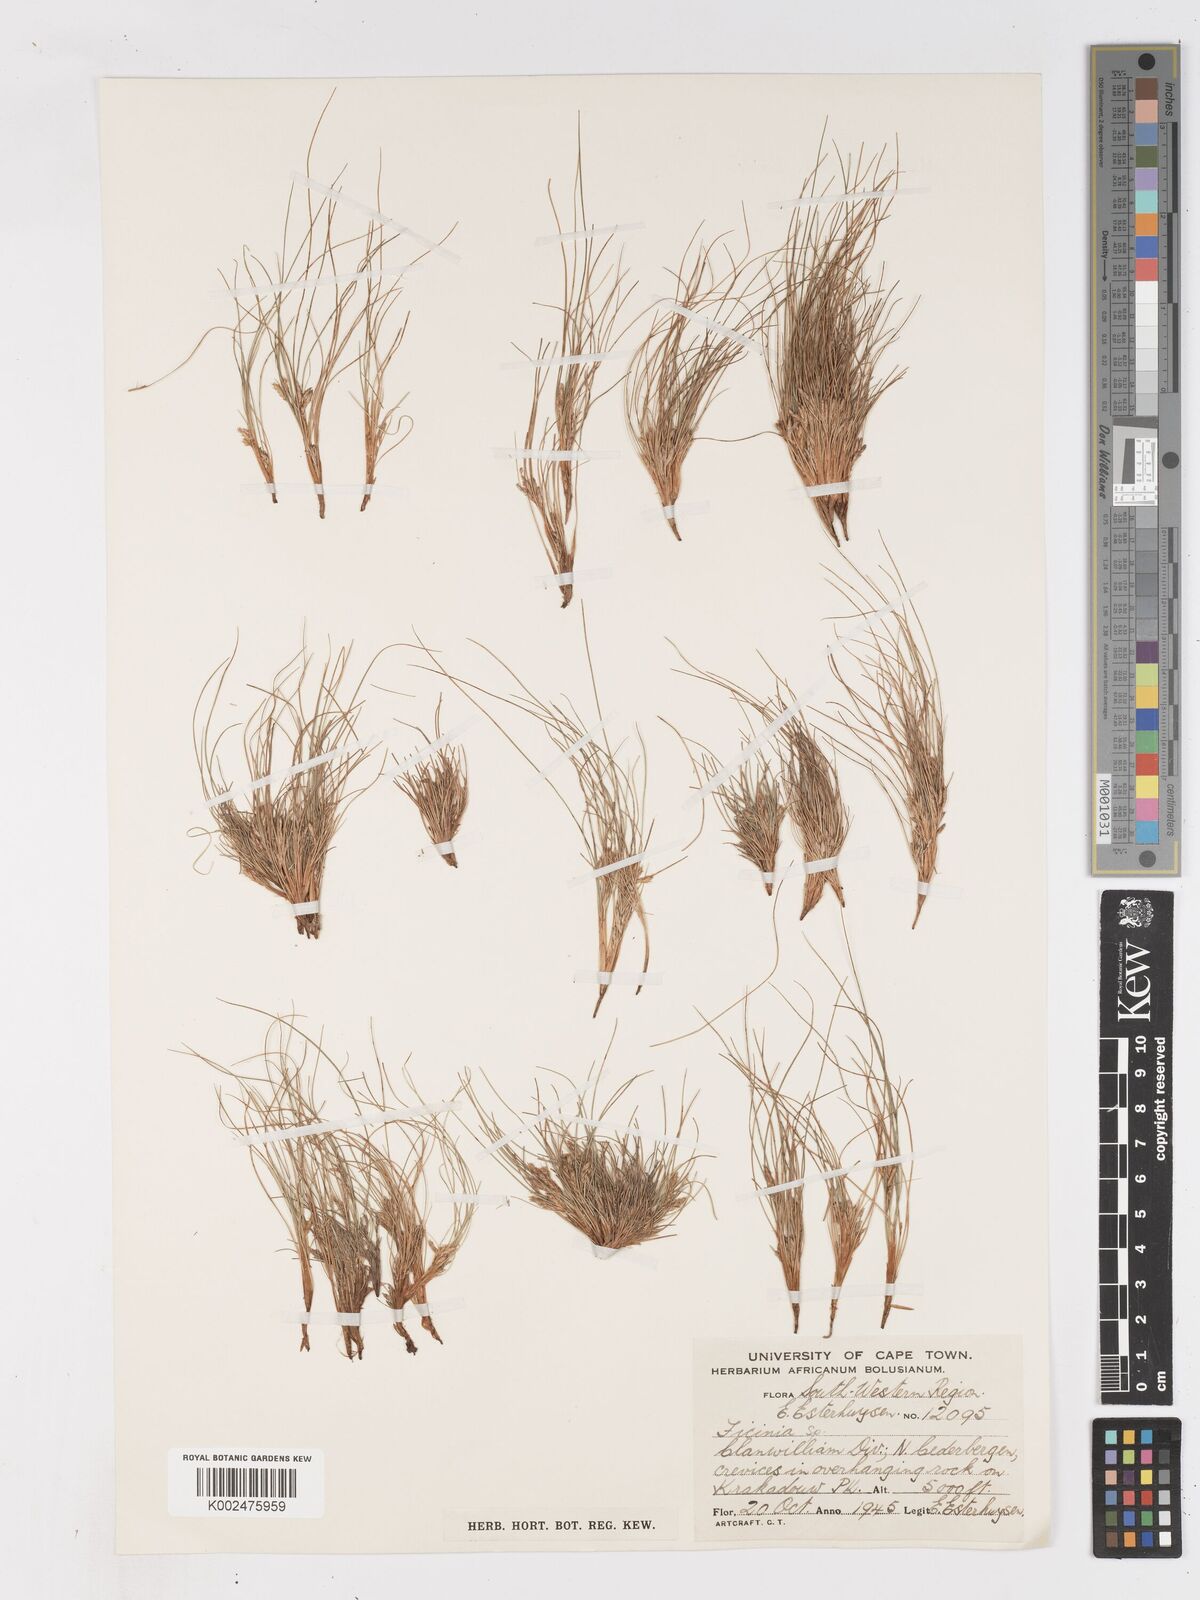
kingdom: Plantae
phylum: Tracheophyta
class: Liliopsida
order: Poales
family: Cyperaceae
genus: Ficinia
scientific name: Ficinia esterhuyseniae
